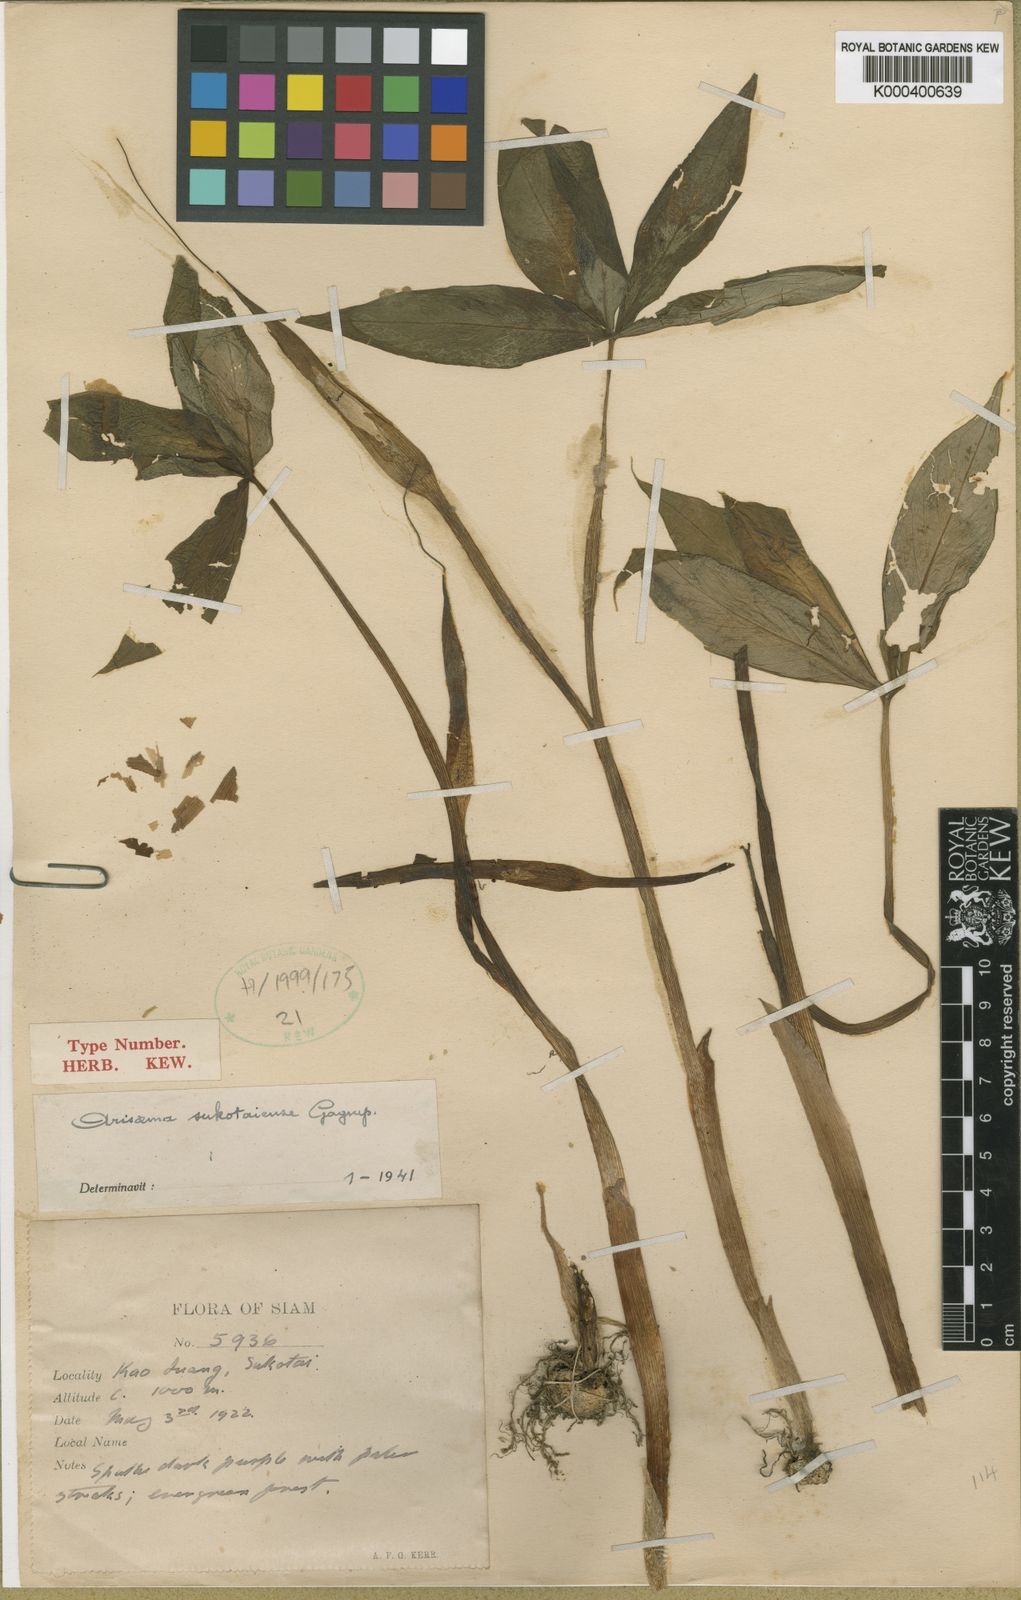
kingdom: Plantae
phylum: Tracheophyta
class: Liliopsida
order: Alismatales
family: Araceae
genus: Arisaema
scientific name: Arisaema sukotaiense
